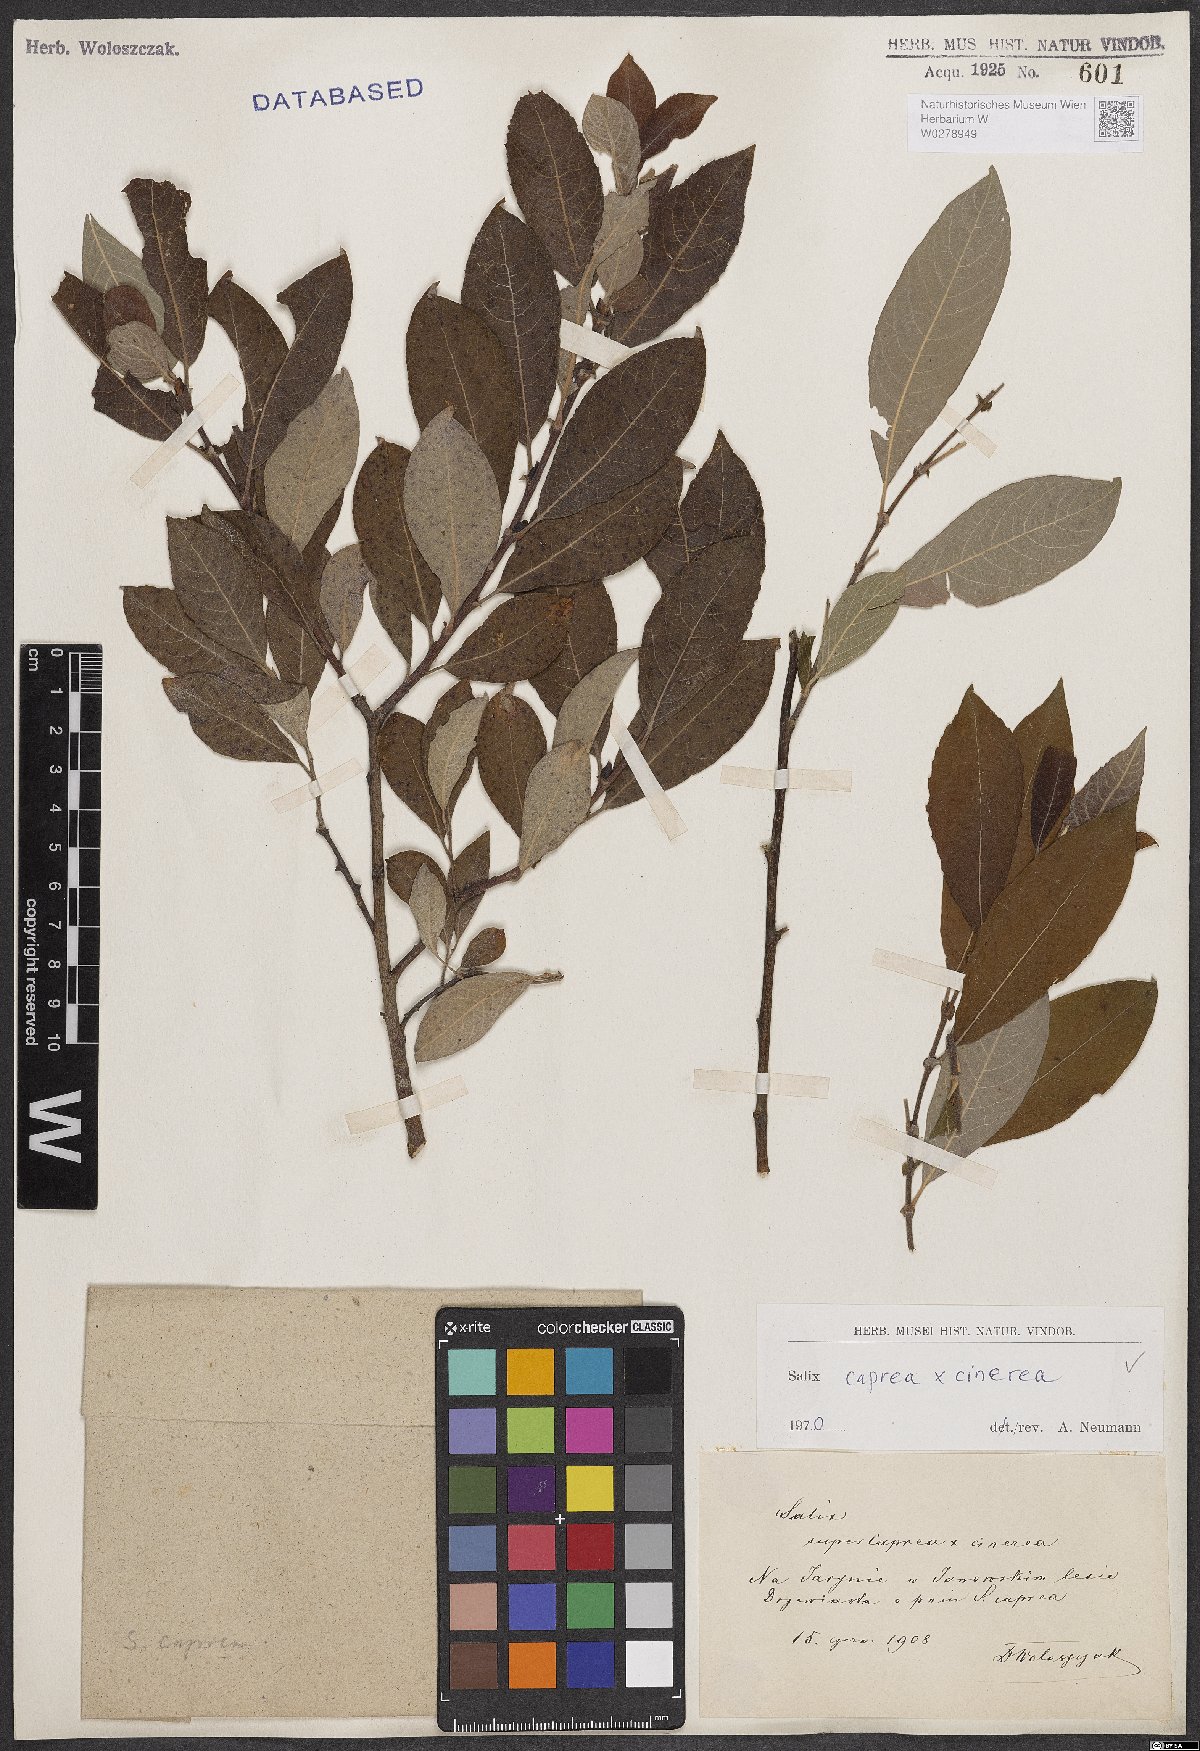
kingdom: Plantae
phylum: Tracheophyta
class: Magnoliopsida
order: Malpighiales
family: Salicaceae
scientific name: Salicaceae
